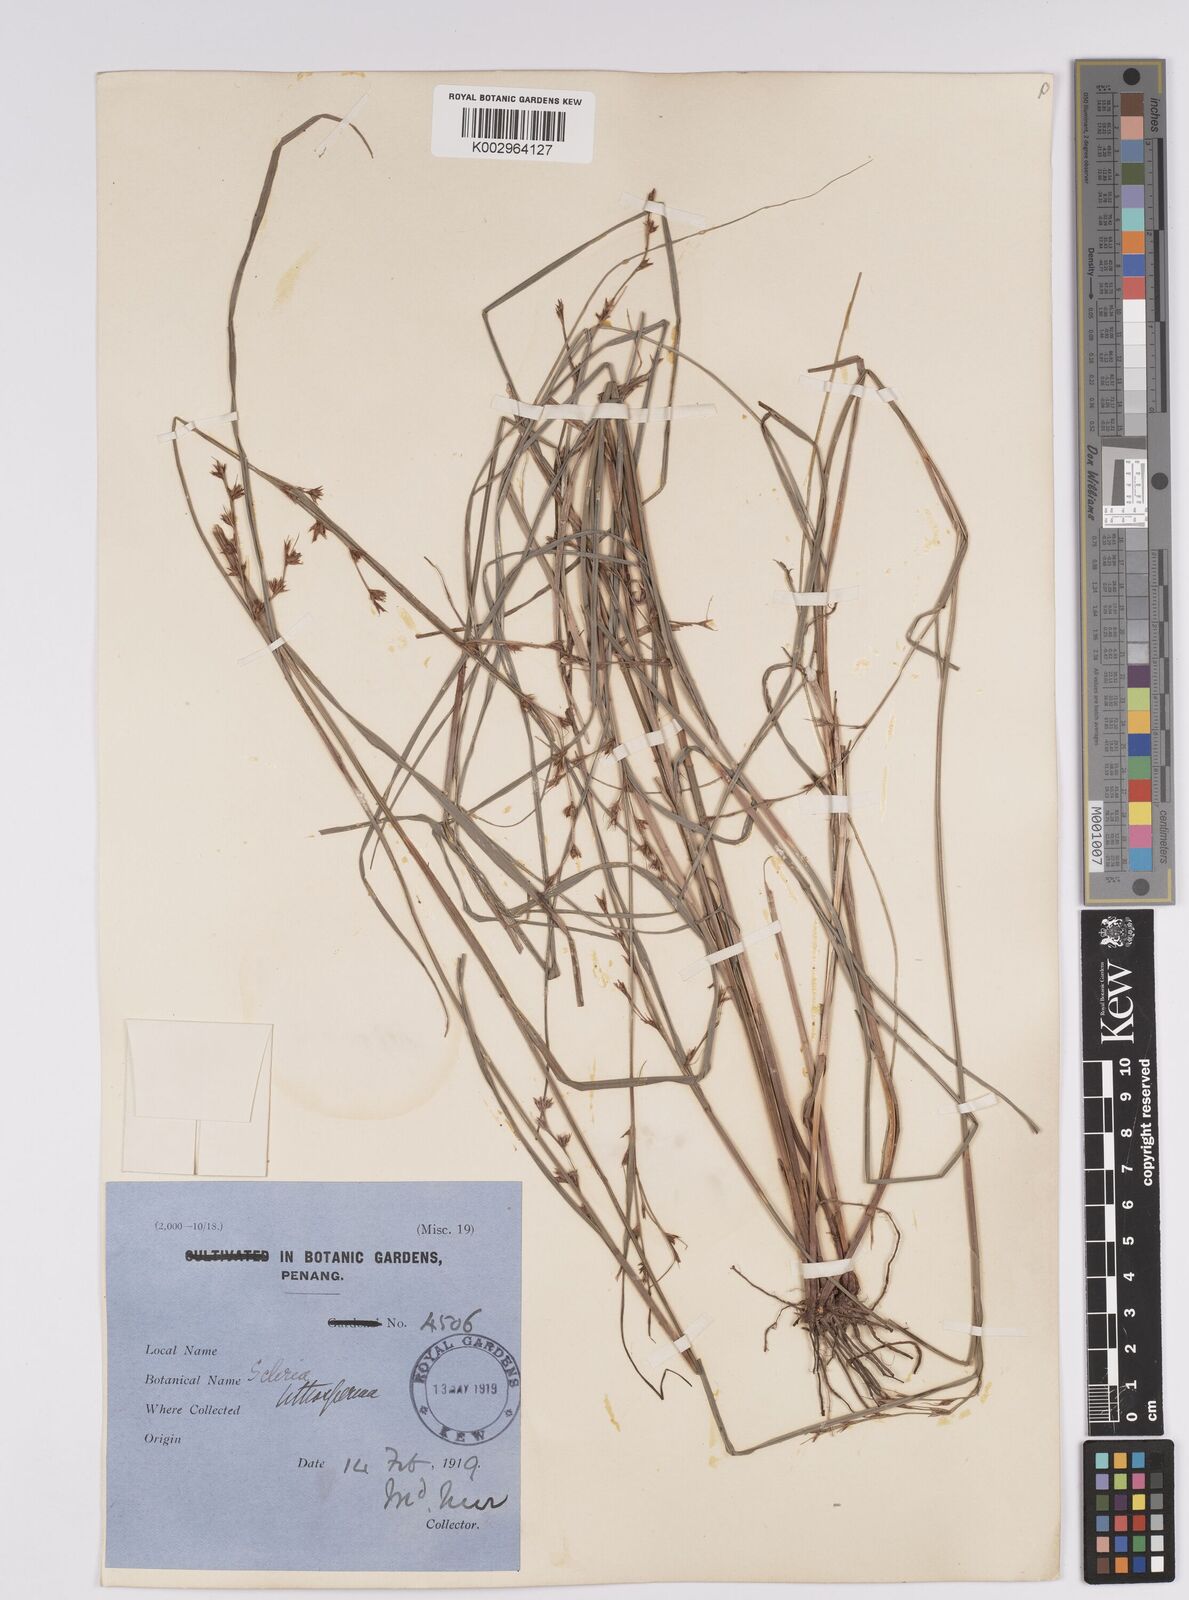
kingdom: Plantae
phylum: Tracheophyta
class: Liliopsida
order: Poales
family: Cyperaceae
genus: Scleria
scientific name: Scleria lithosperma
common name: Florida keys nut-rush
